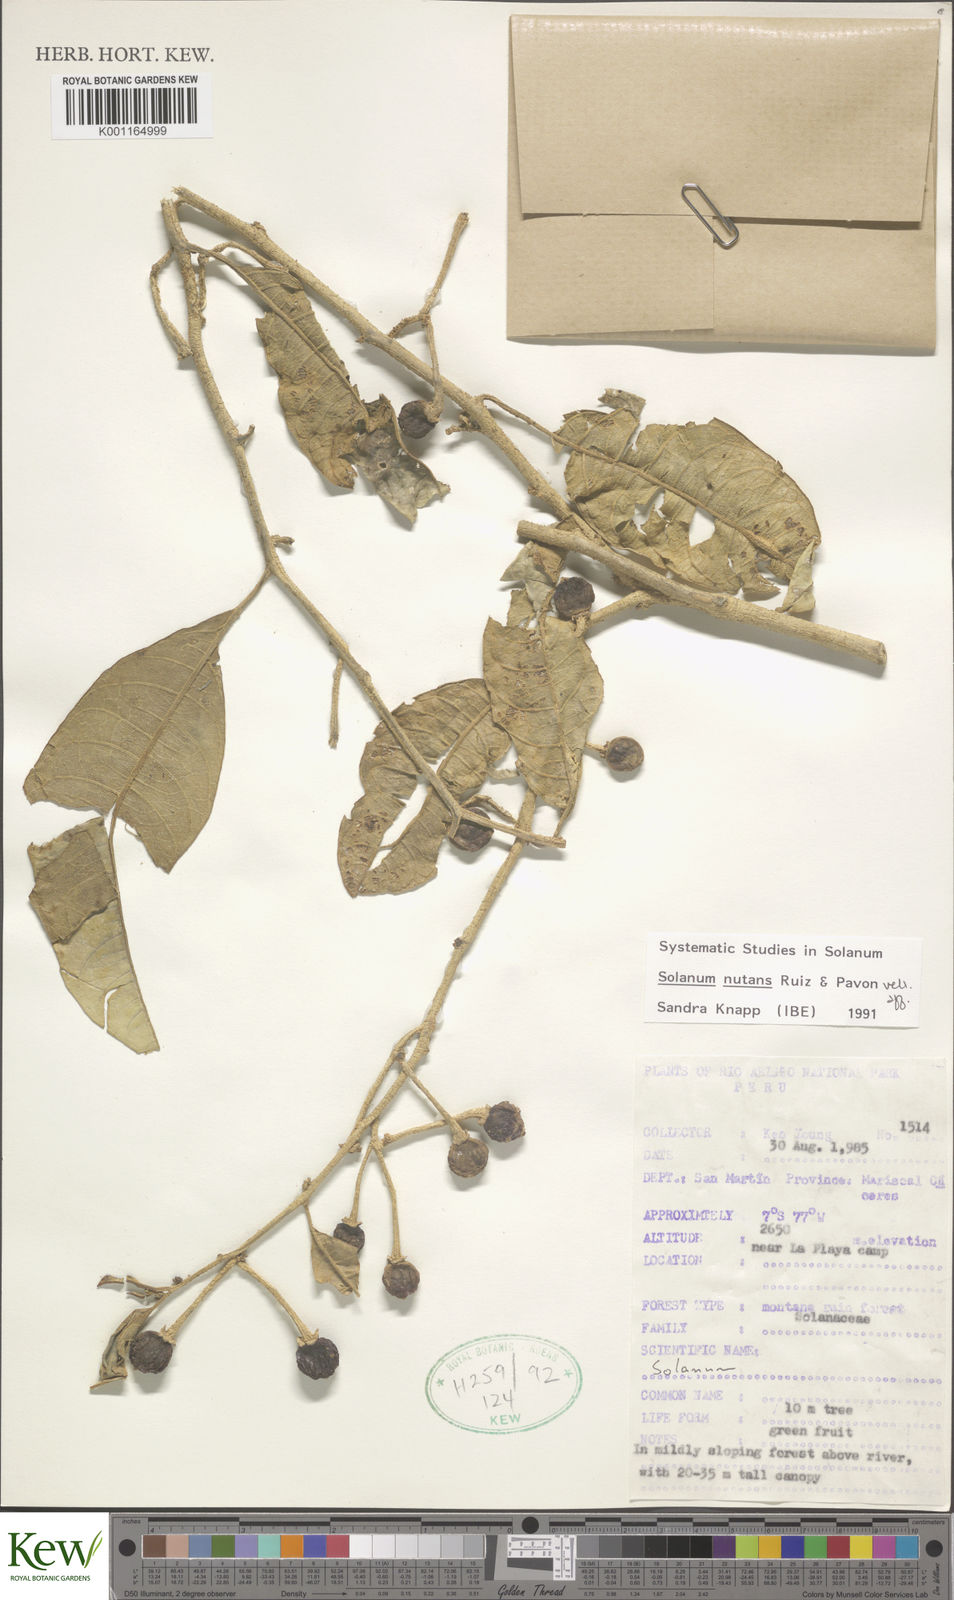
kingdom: Plantae
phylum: Tracheophyta
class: Magnoliopsida
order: Solanales
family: Solanaceae
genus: Solanum
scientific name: Solanum nutans
